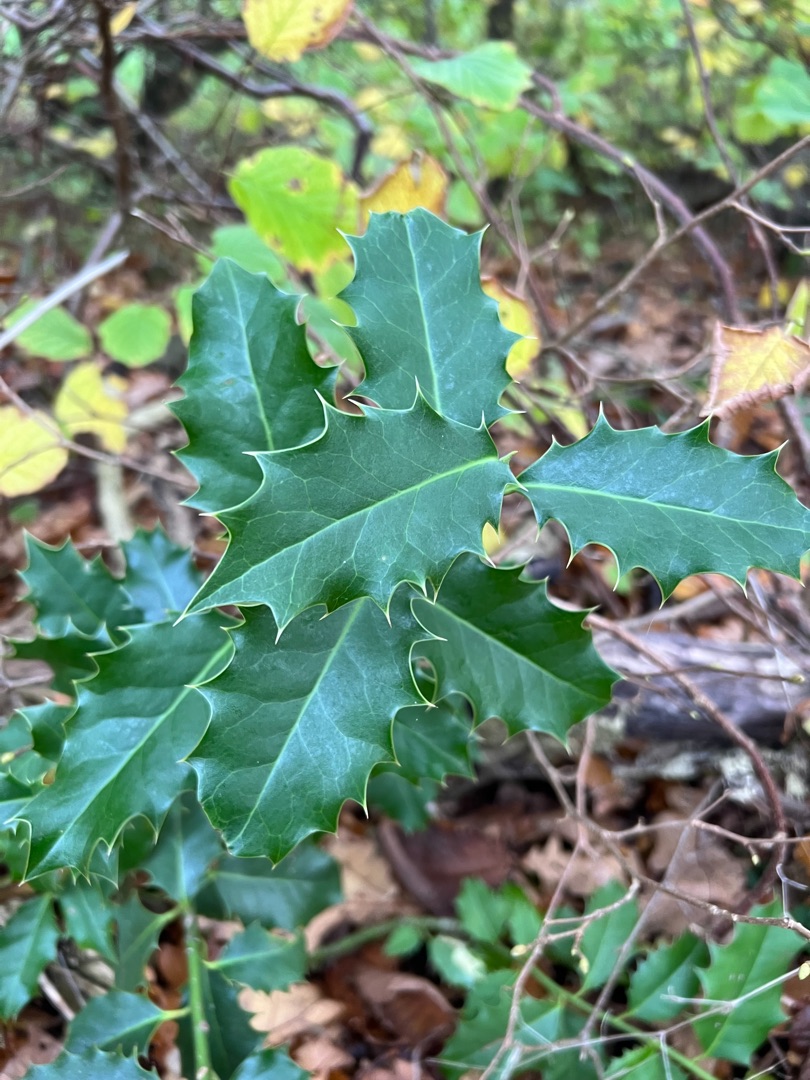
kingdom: Plantae
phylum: Tracheophyta
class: Magnoliopsida
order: Aquifoliales
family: Aquifoliaceae
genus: Ilex
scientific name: Ilex aquifolium
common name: Kristtorn
